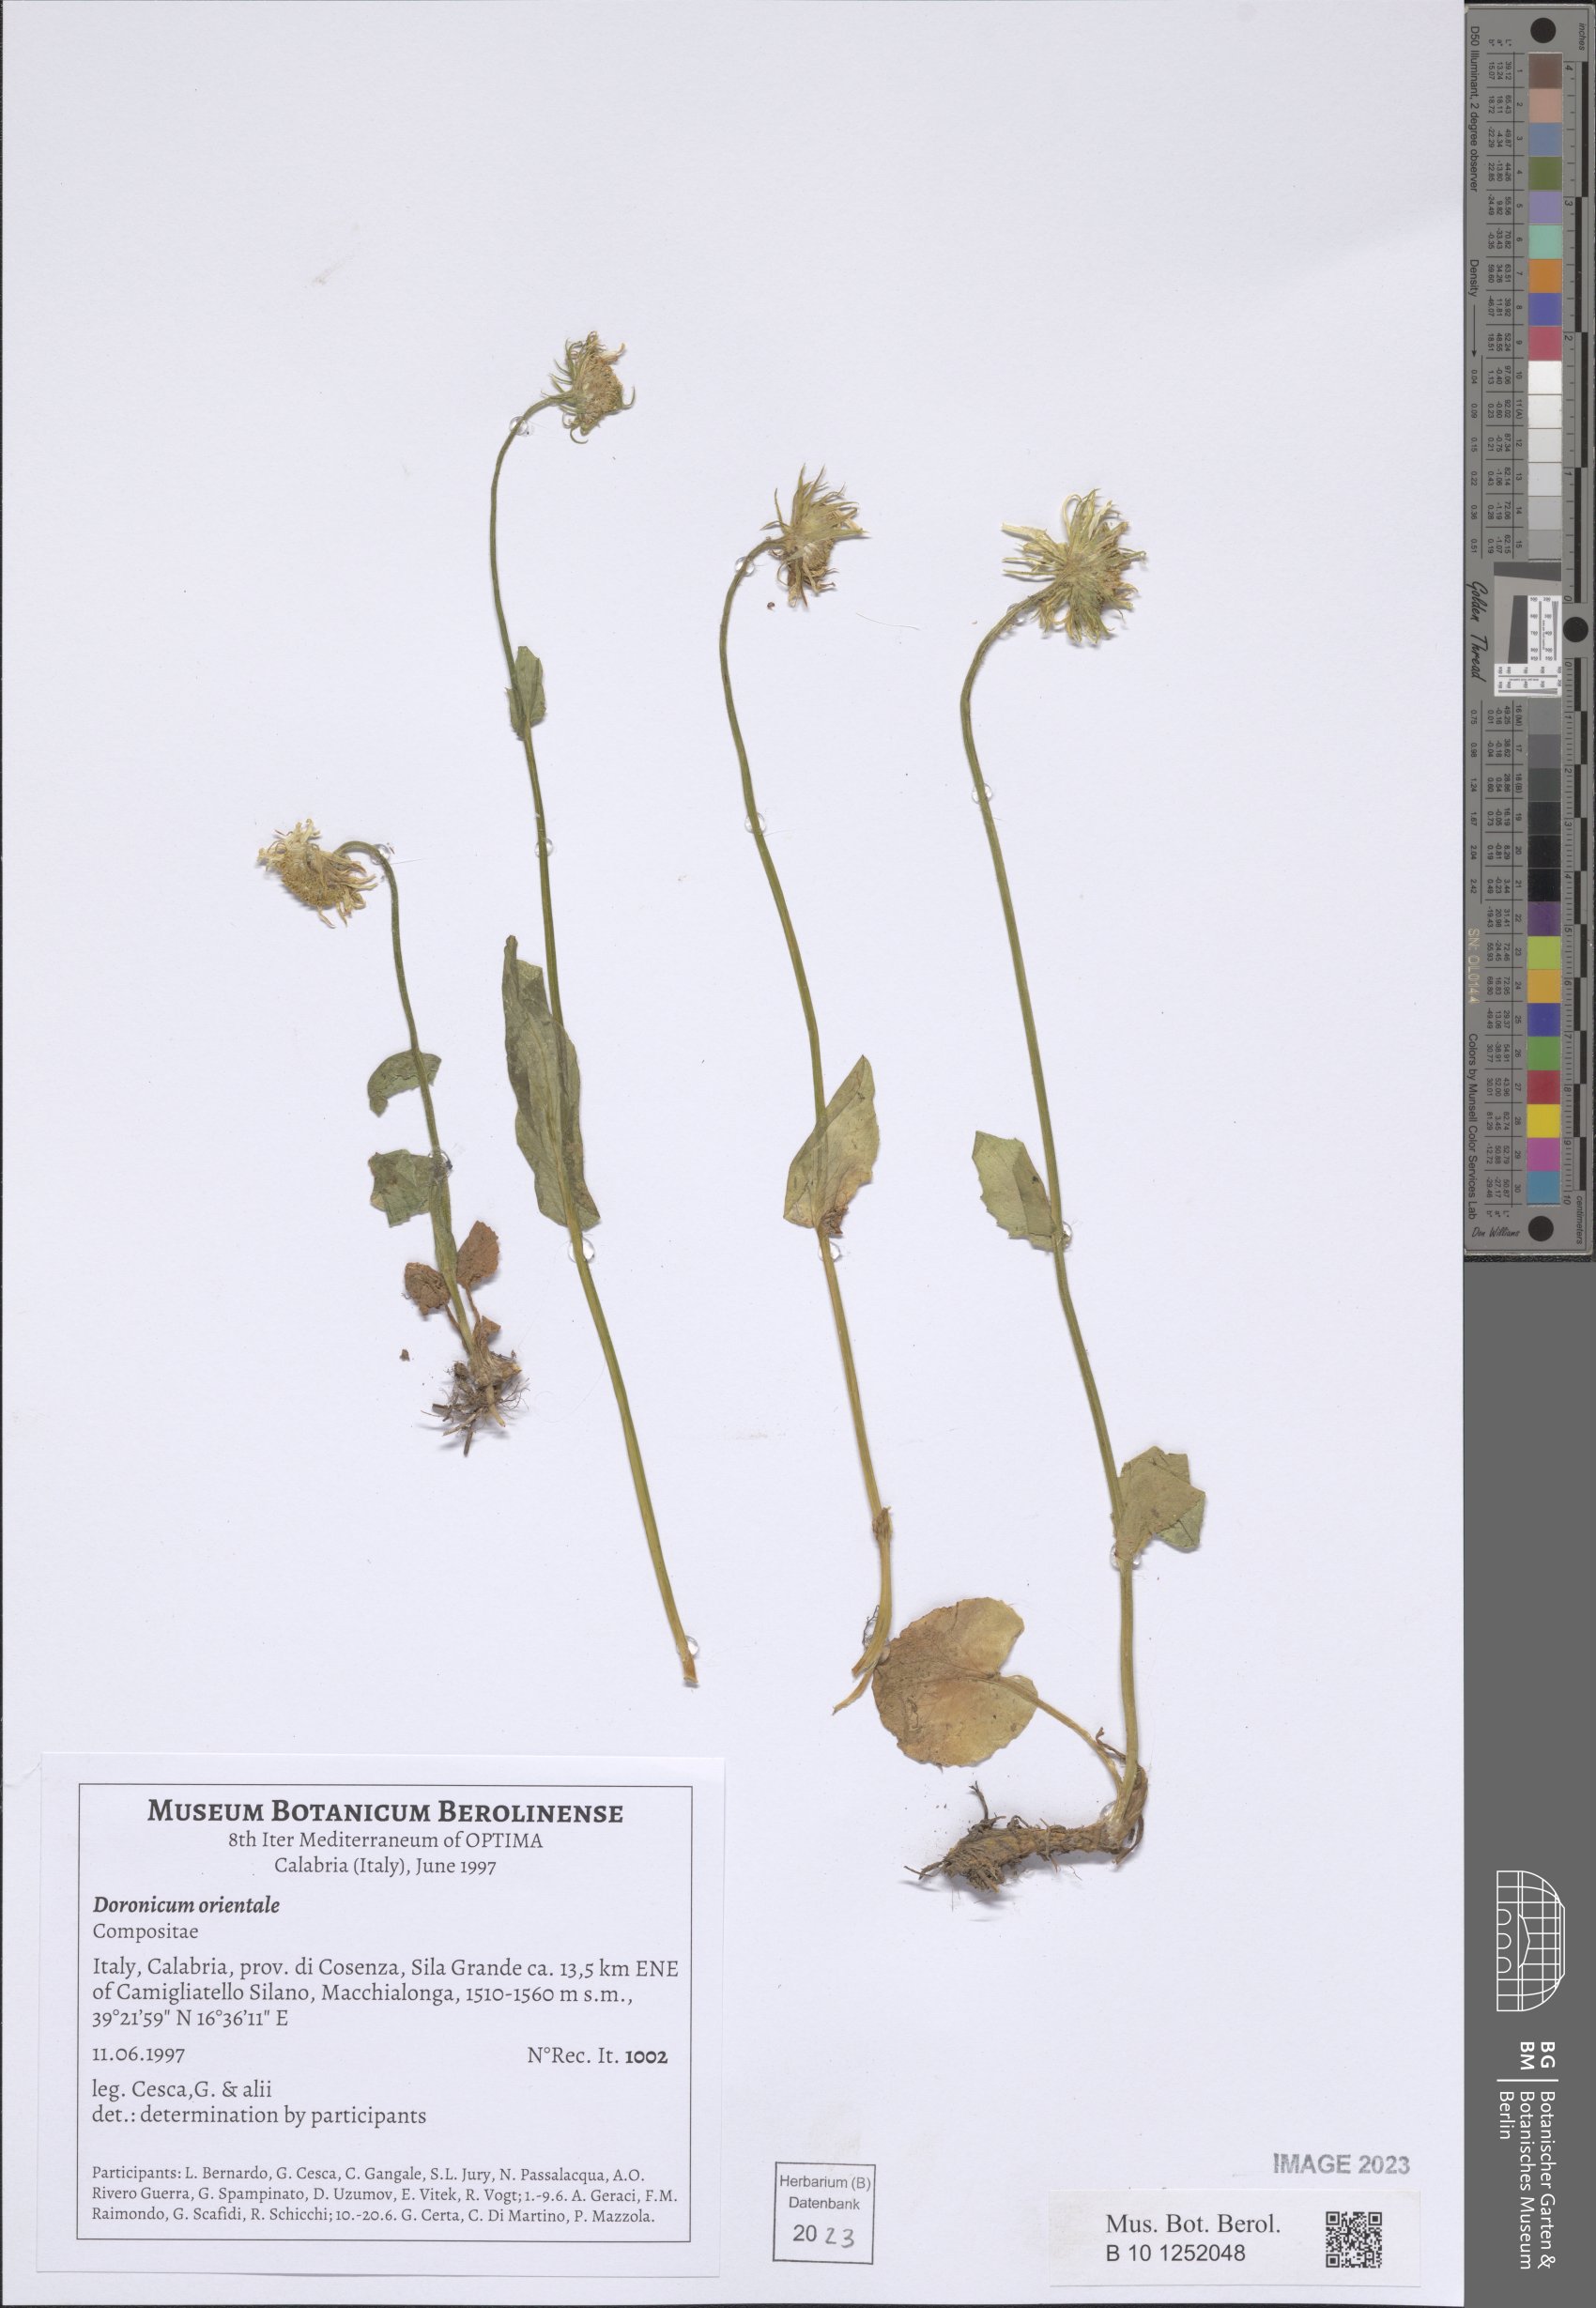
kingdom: Plantae
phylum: Tracheophyta
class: Magnoliopsida
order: Asterales
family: Asteraceae
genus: Doronicum
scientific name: Doronicum orientale
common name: Oriental leopard's-bane
